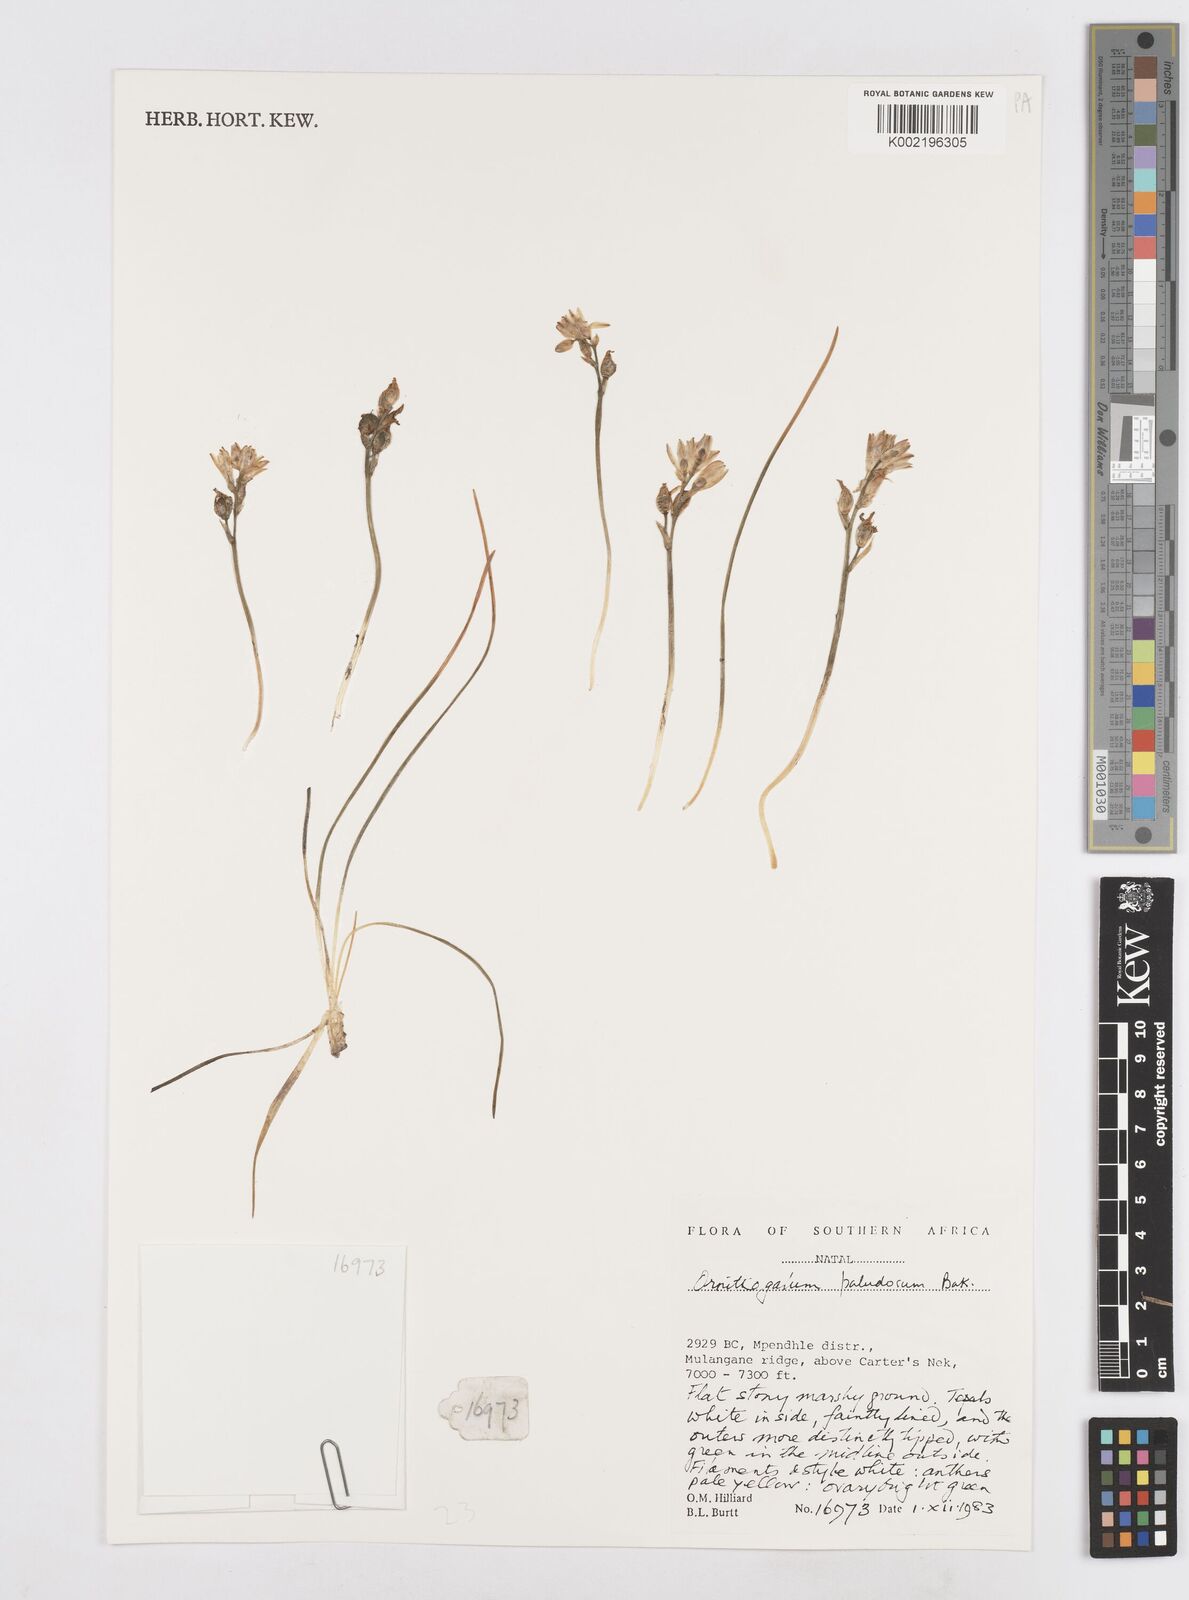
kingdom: Plantae
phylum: Tracheophyta
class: Liliopsida
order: Asparagales
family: Asparagaceae
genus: Ornithogalum
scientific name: Ornithogalum paludosum
